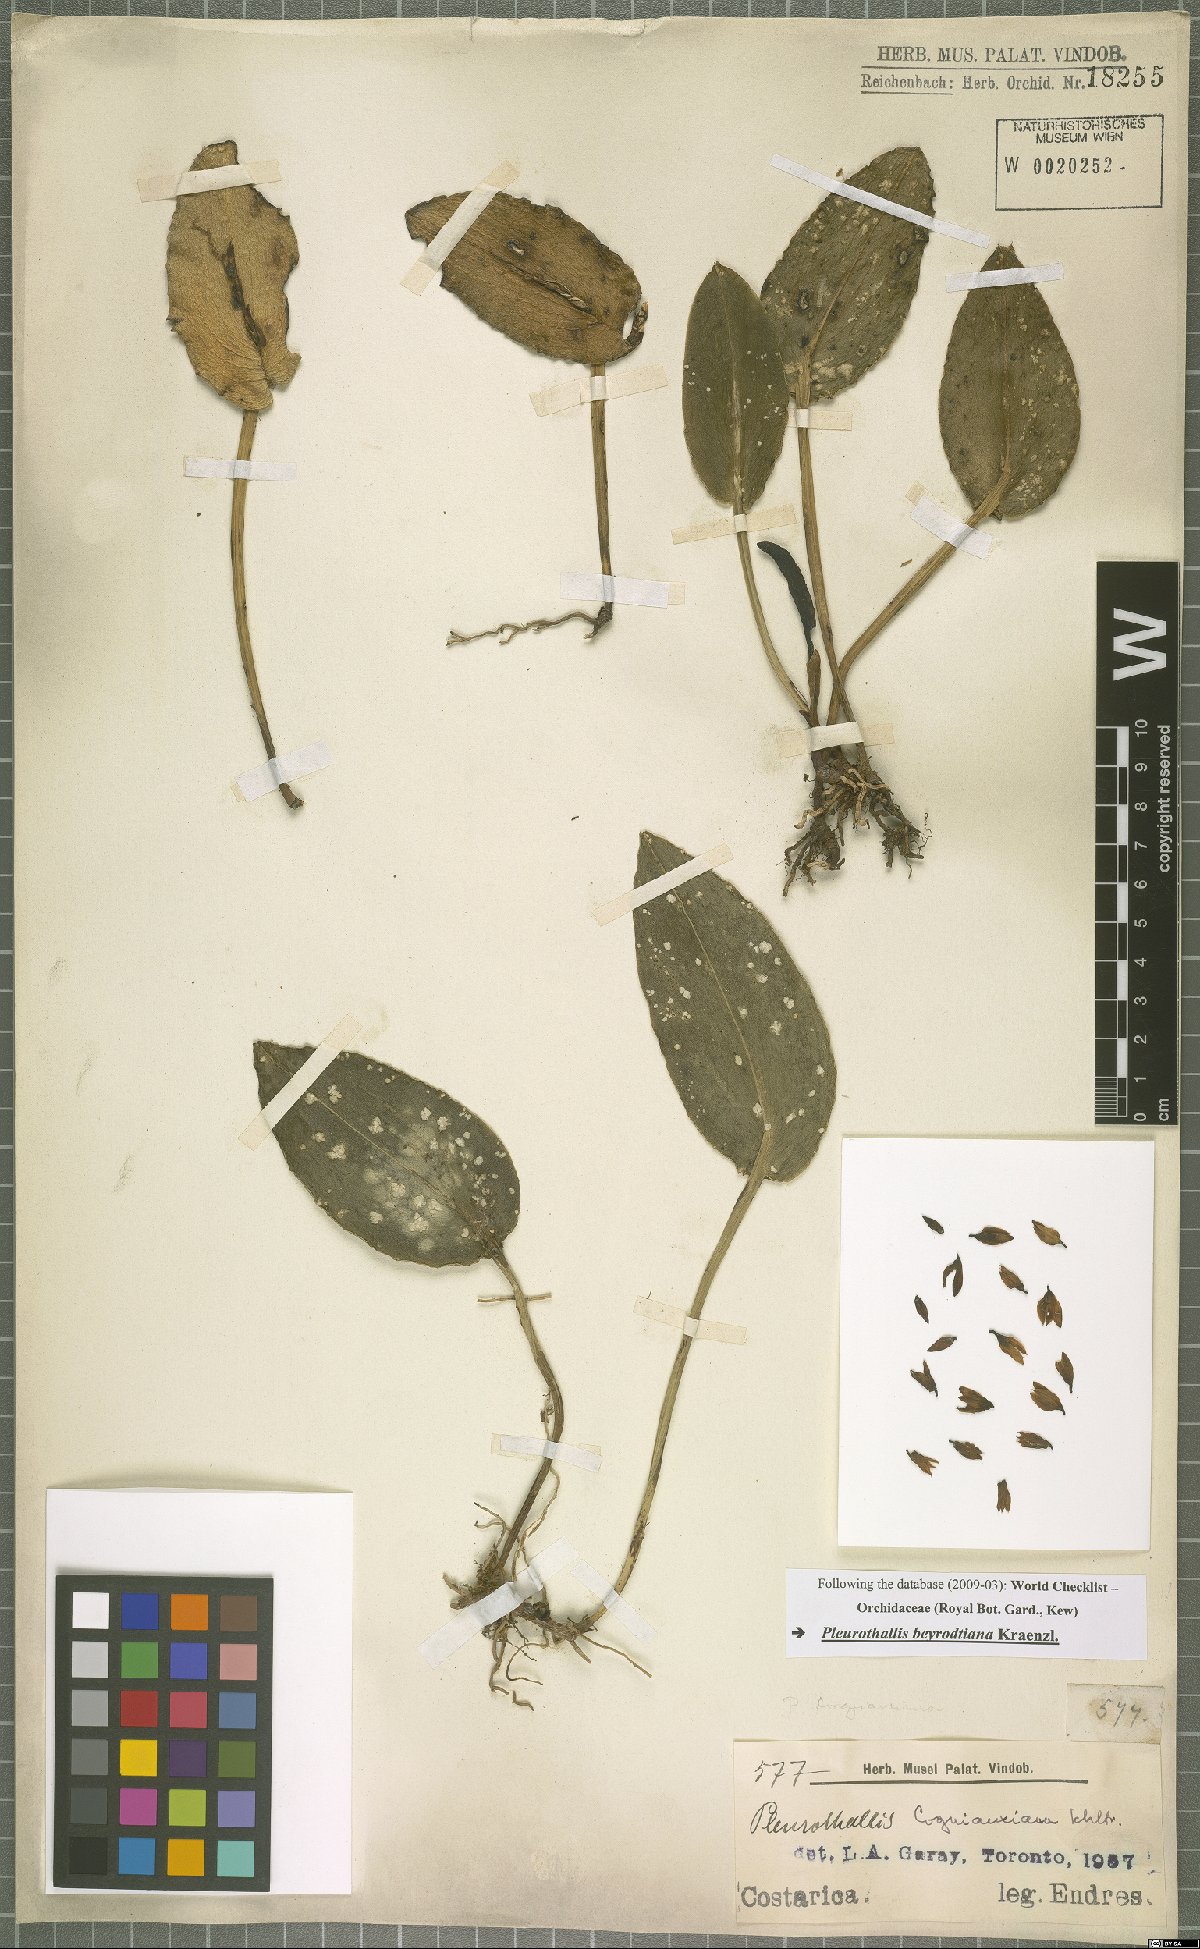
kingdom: Plantae
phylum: Tracheophyta
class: Liliopsida
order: Asparagales
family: Orchidaceae
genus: Acianthera
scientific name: Acianthera beyrodtiana
